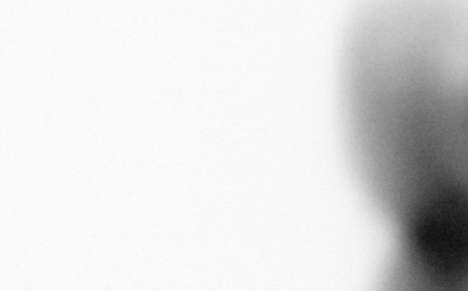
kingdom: Animalia
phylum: Annelida
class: Polychaeta
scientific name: Polychaeta
